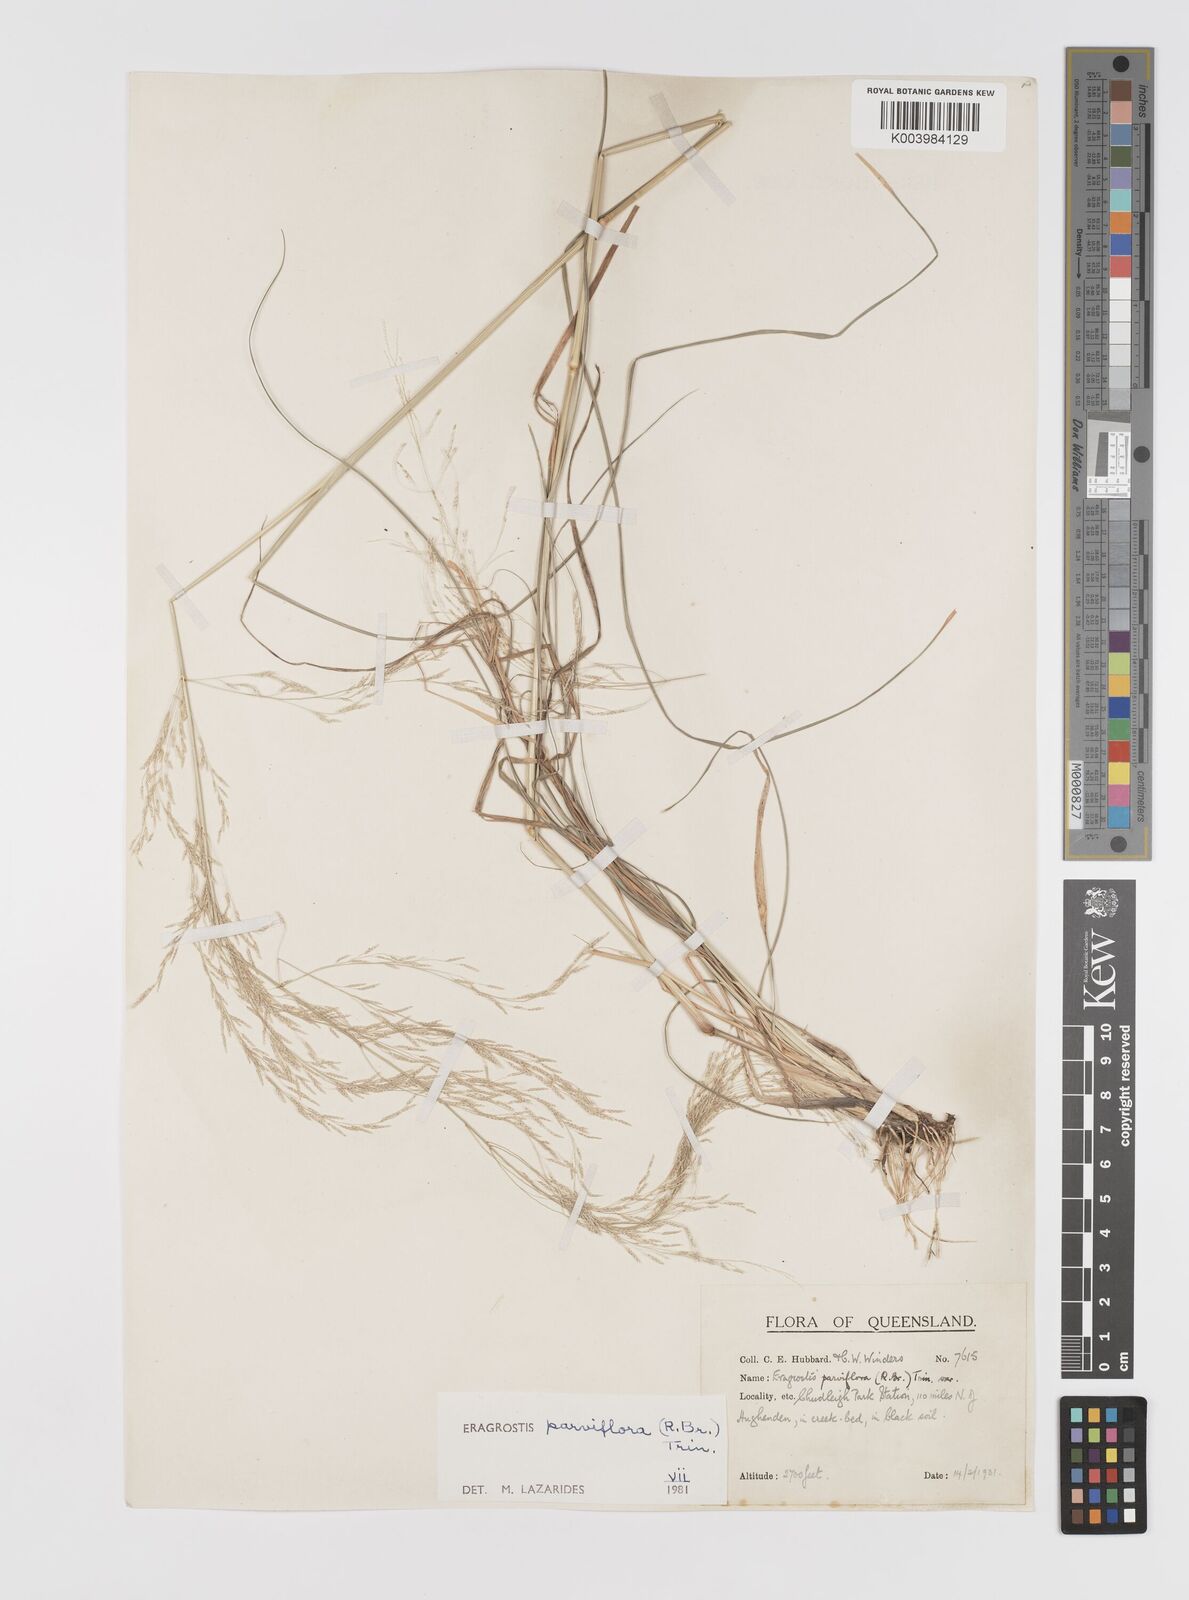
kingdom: Plantae
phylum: Tracheophyta
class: Liliopsida
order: Poales
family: Poaceae
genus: Eragrostis
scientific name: Eragrostis parviflora
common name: Weeping love-grass
